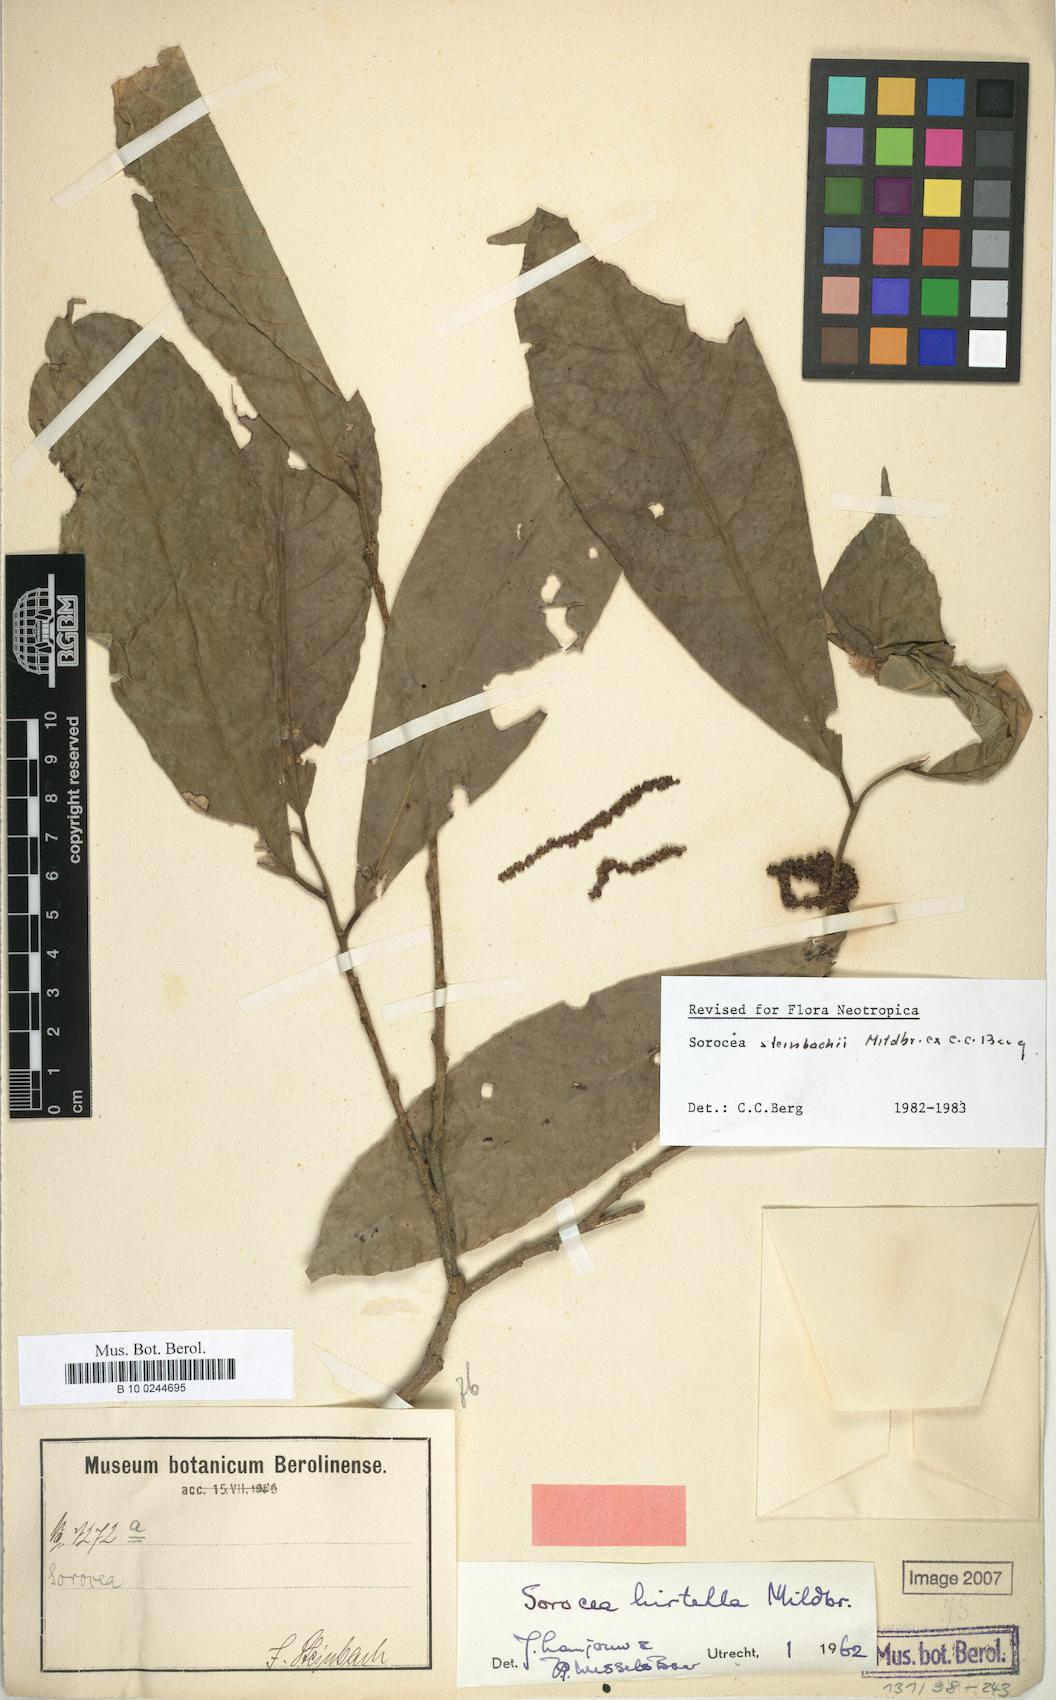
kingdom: Plantae
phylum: Tracheophyta
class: Magnoliopsida
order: Rosales
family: Moraceae
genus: Sorocea
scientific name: Sorocea steinbachii
